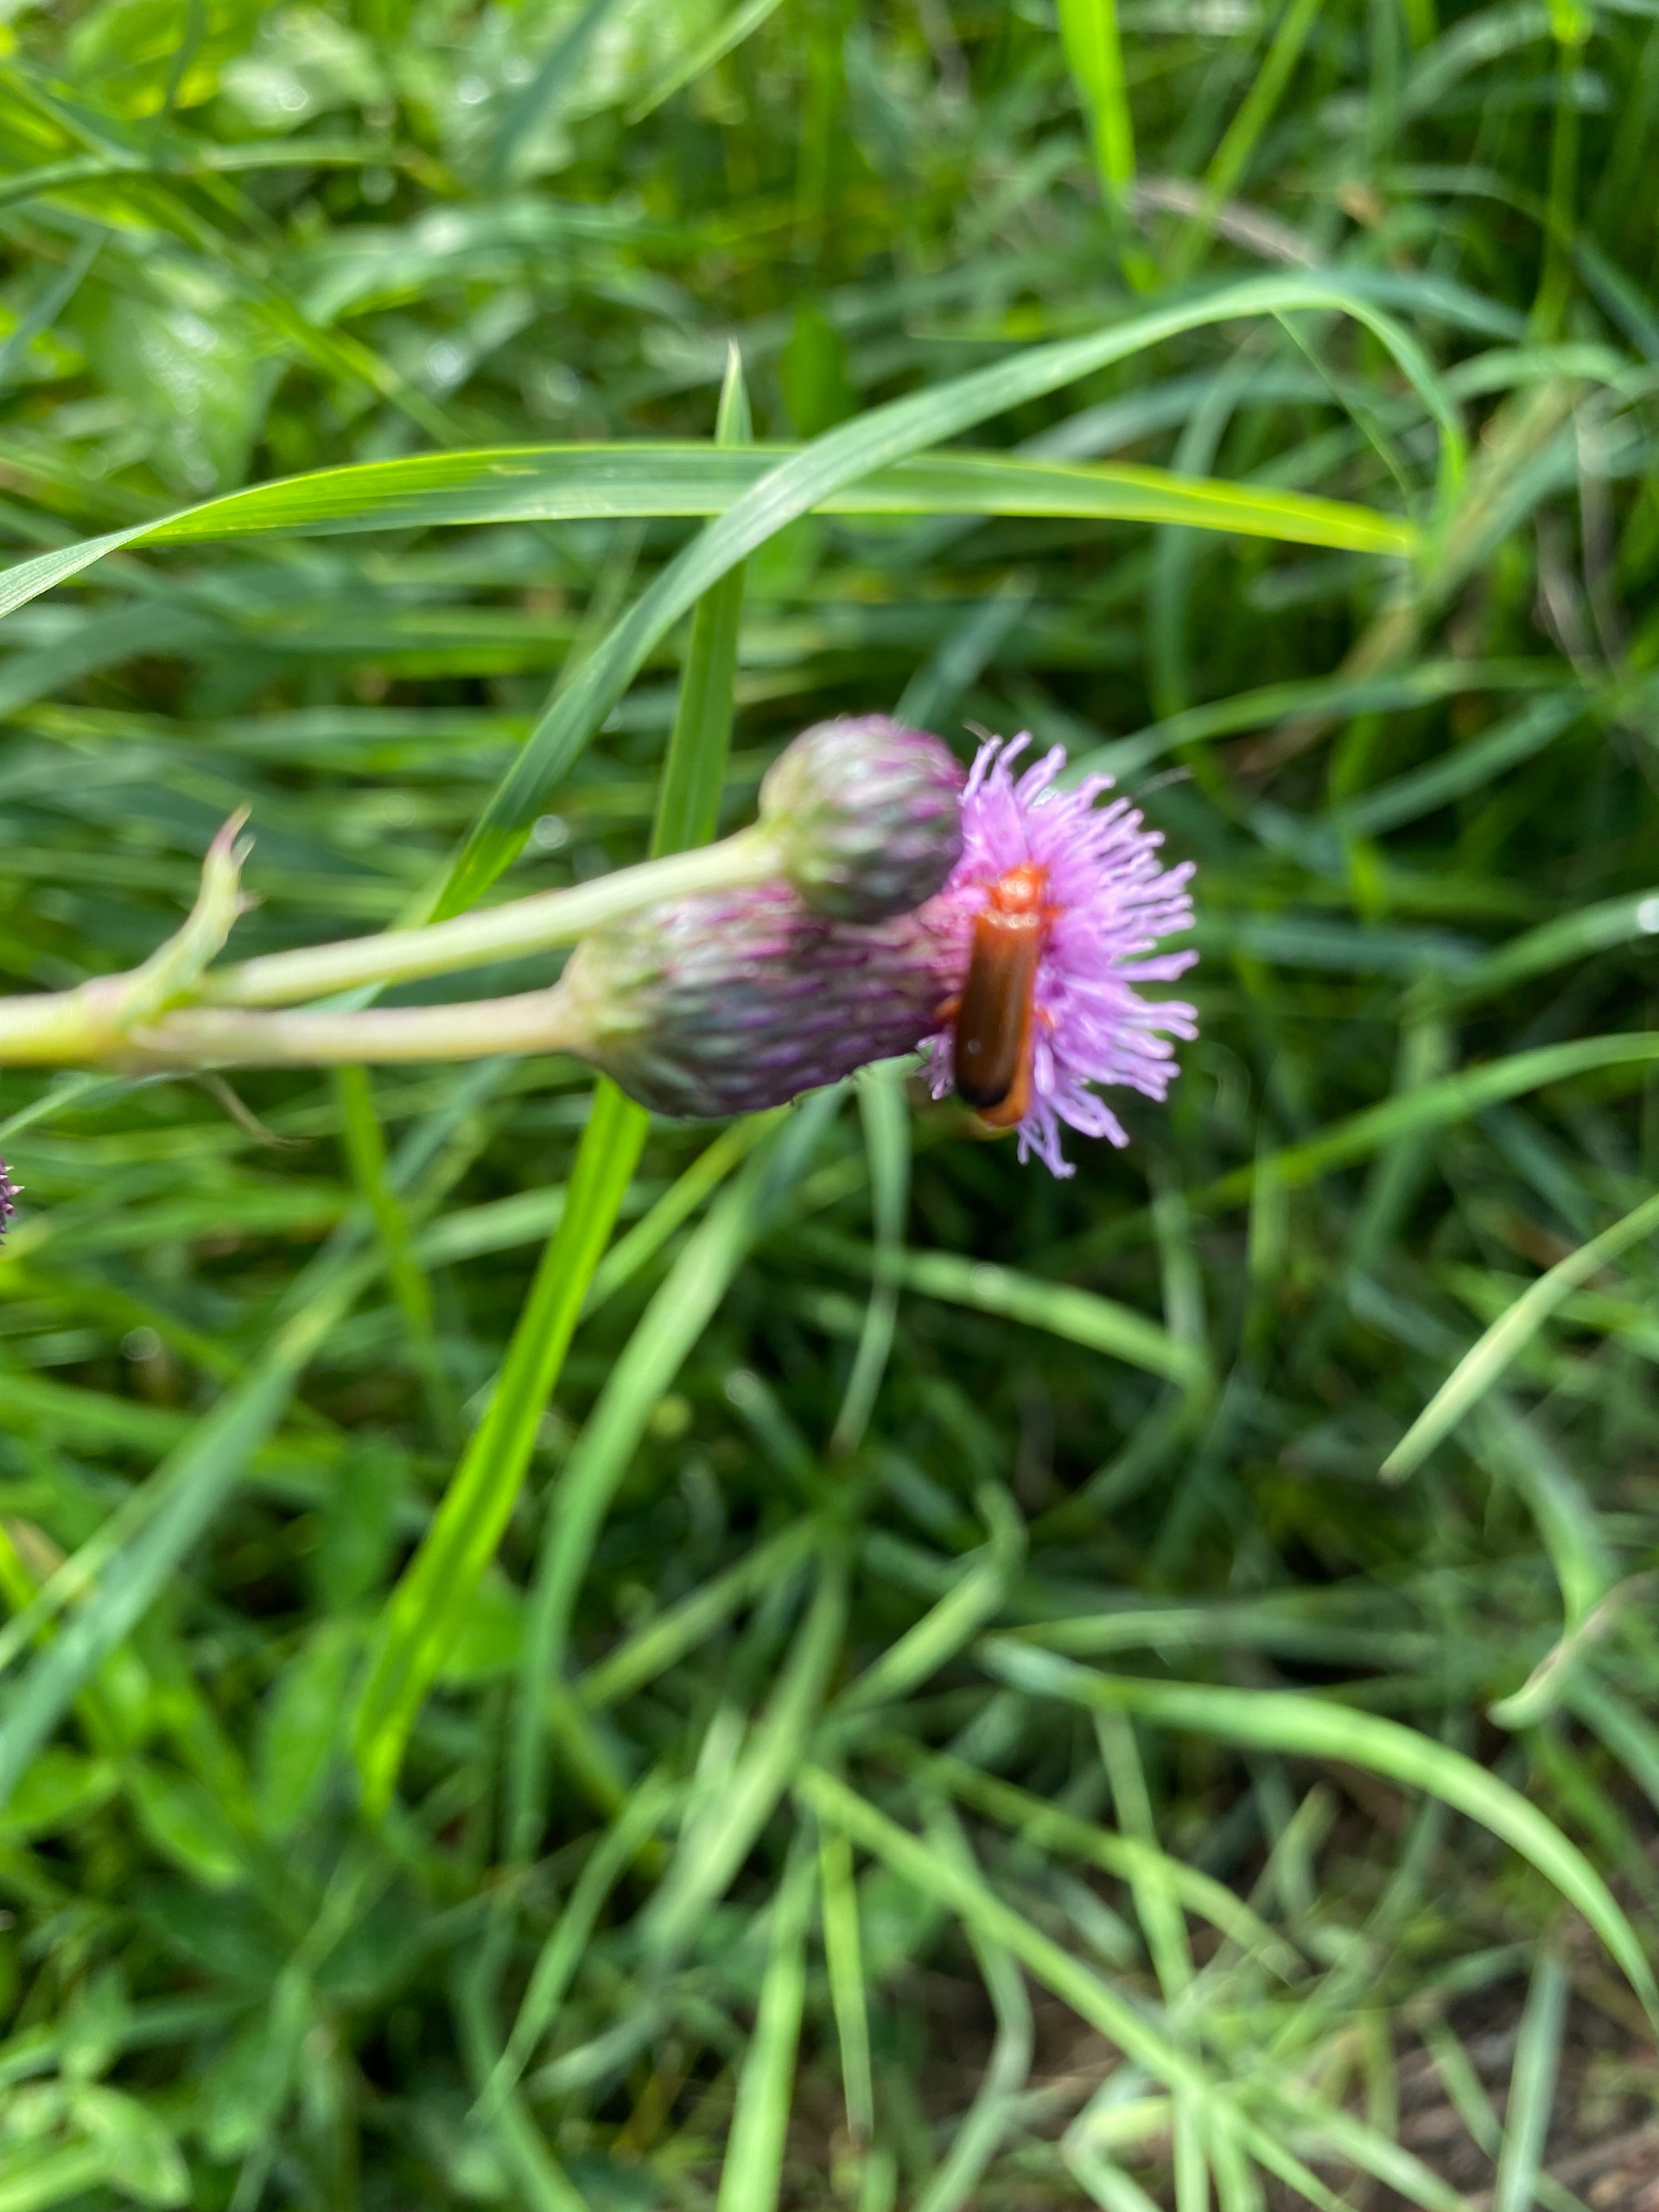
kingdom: Plantae
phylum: Tracheophyta
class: Magnoliopsida
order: Asterales
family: Asteraceae
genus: Cirsium
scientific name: Cirsium arvense
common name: Ager-tidsel
